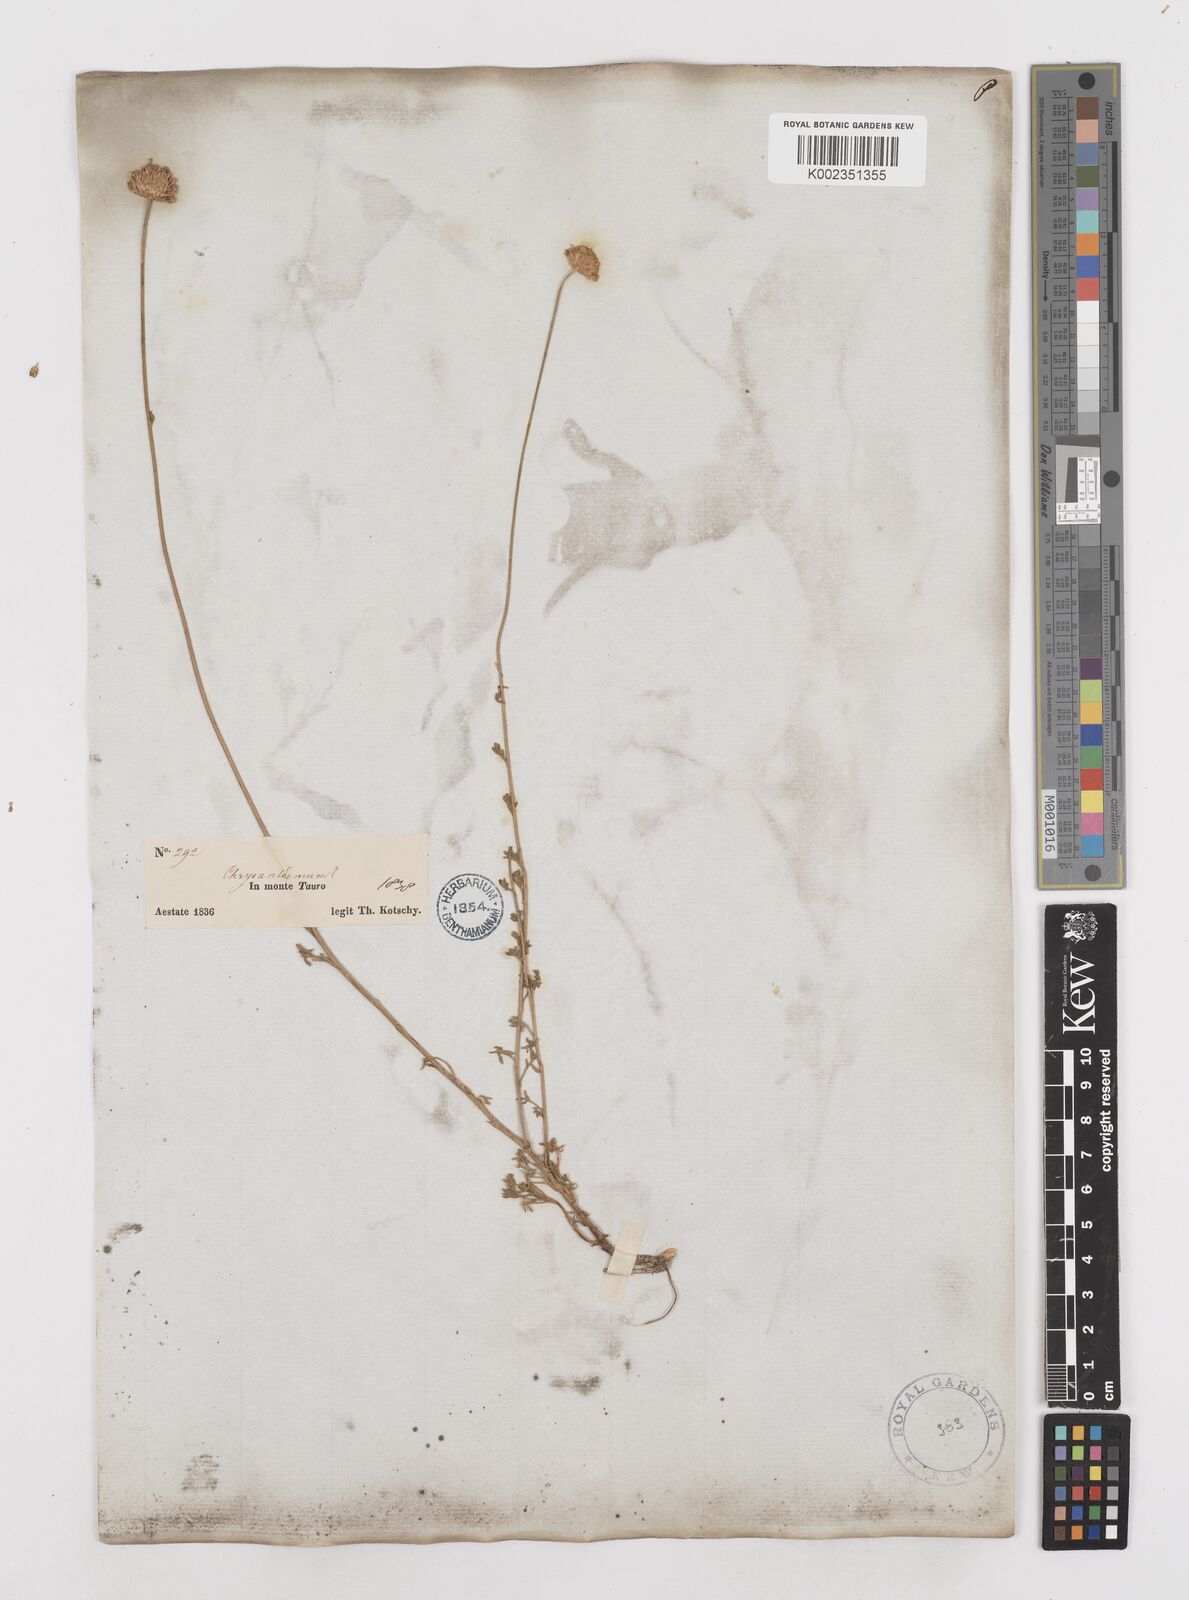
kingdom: Plantae
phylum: Tracheophyta
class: Magnoliopsida
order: Asterales
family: Asteraceae
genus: Anthemis
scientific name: Anthemis kotschyana
